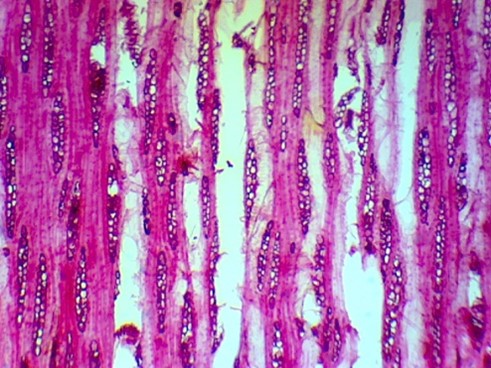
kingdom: Plantae
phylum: Tracheophyta
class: Magnoliopsida
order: Oxalidales
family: Cunoniaceae
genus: Eucryphia
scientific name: Eucryphia cordifolia
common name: Ulmo
